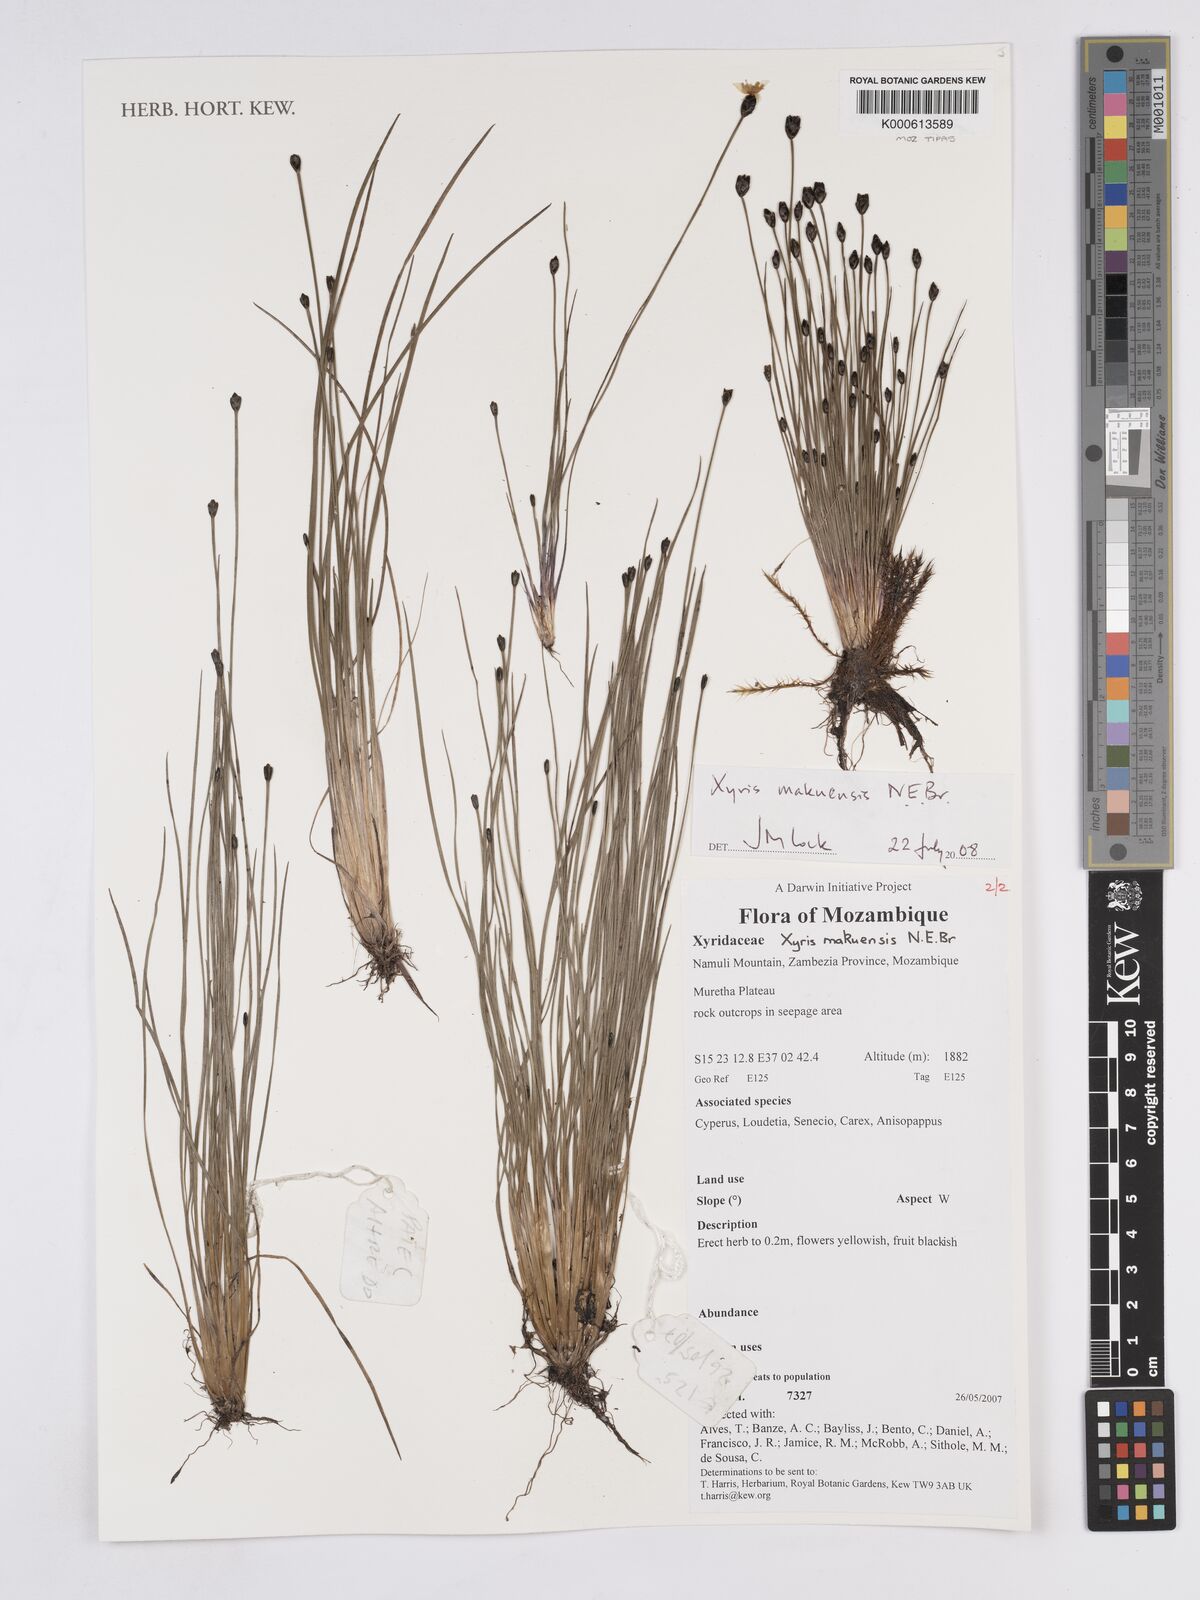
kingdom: Plantae
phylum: Tracheophyta
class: Liliopsida
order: Poales
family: Xyridaceae
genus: Xyris
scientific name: Xyris makuensis
